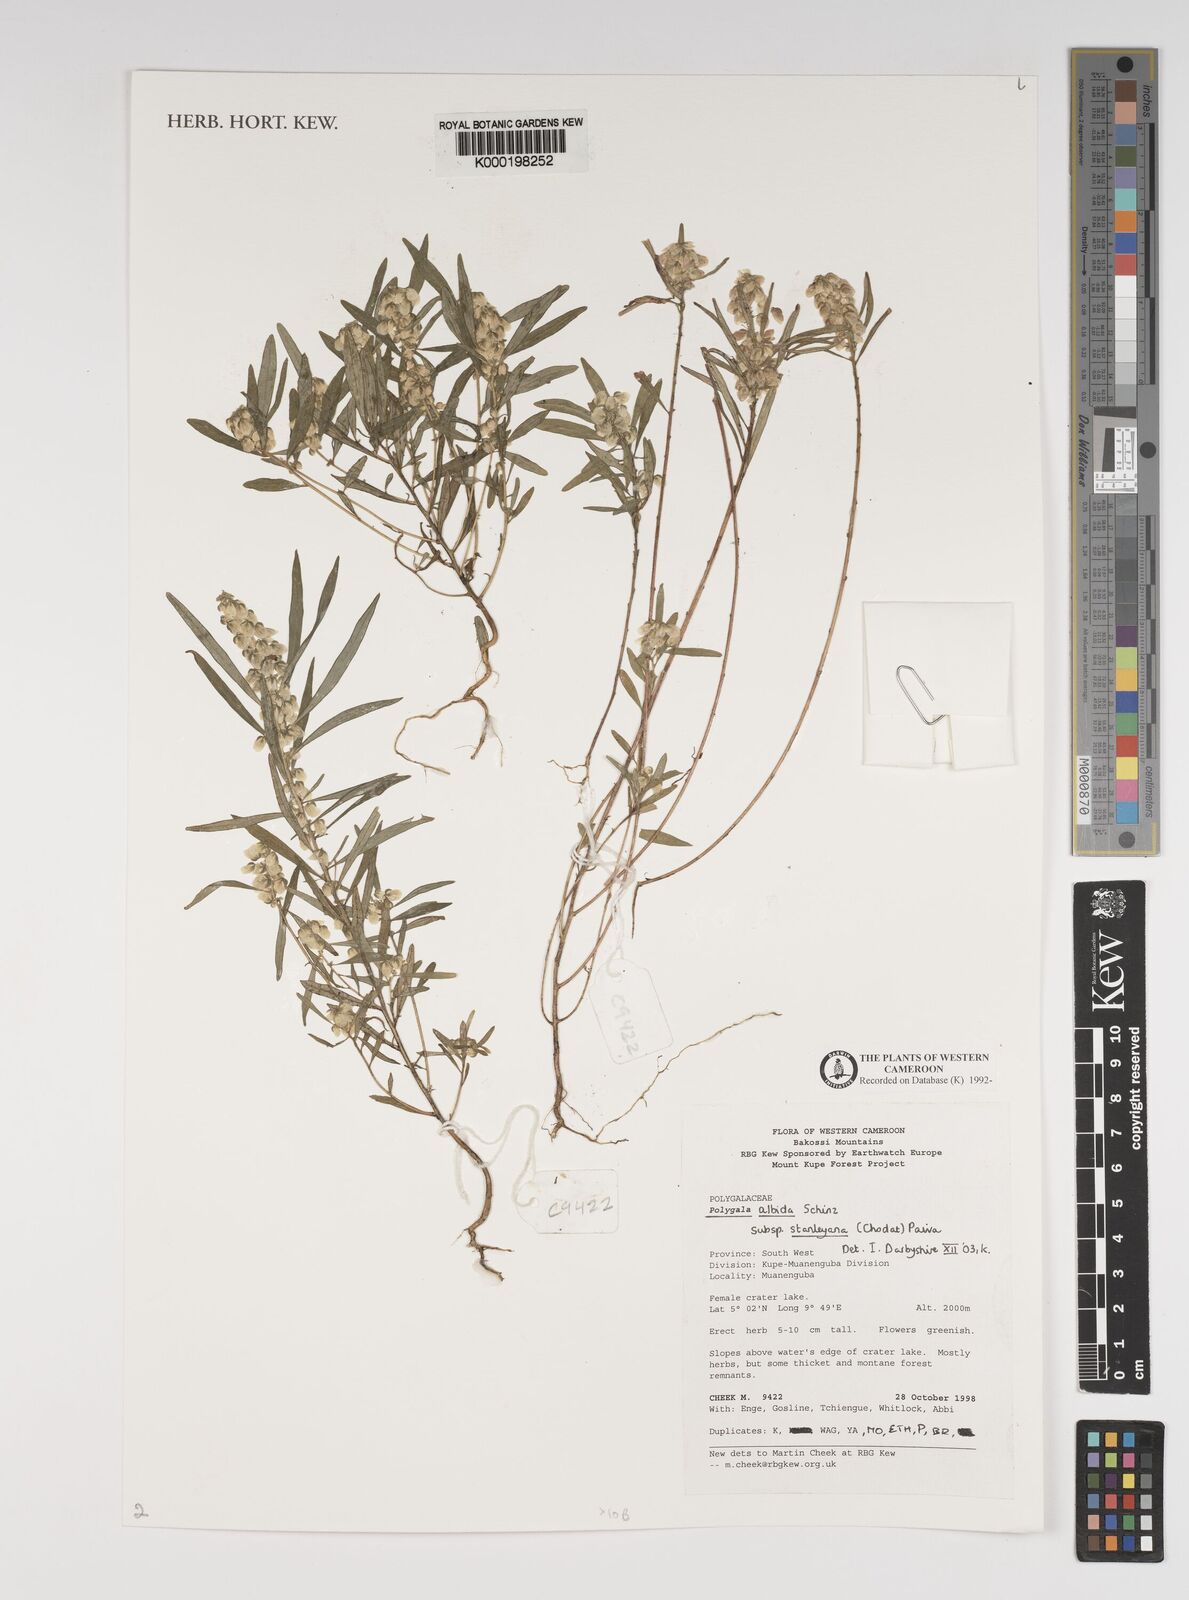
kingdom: Plantae
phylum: Tracheophyta
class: Magnoliopsida
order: Fabales
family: Polygalaceae
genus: Polygala
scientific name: Polygala albida
